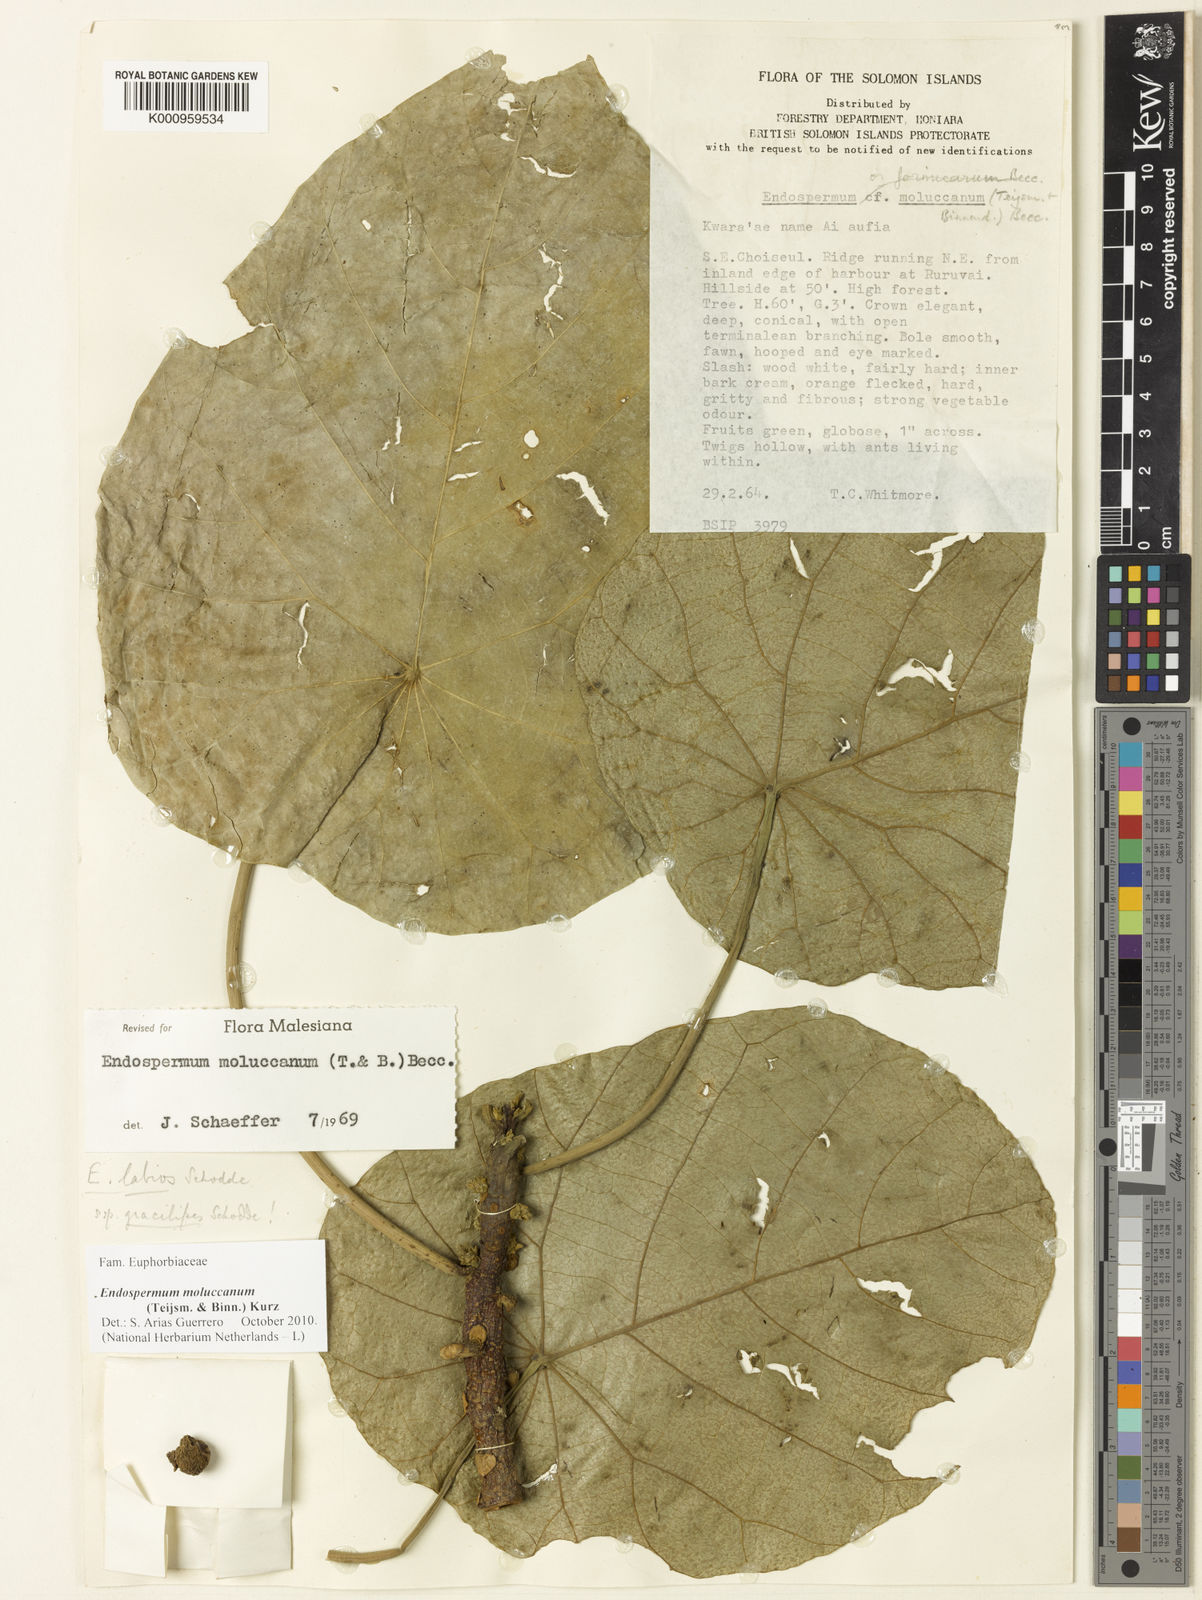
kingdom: Plantae
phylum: Tracheophyta
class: Magnoliopsida
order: Malpighiales
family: Euphorbiaceae
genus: Endospermum
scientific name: Endospermum moluccanum
